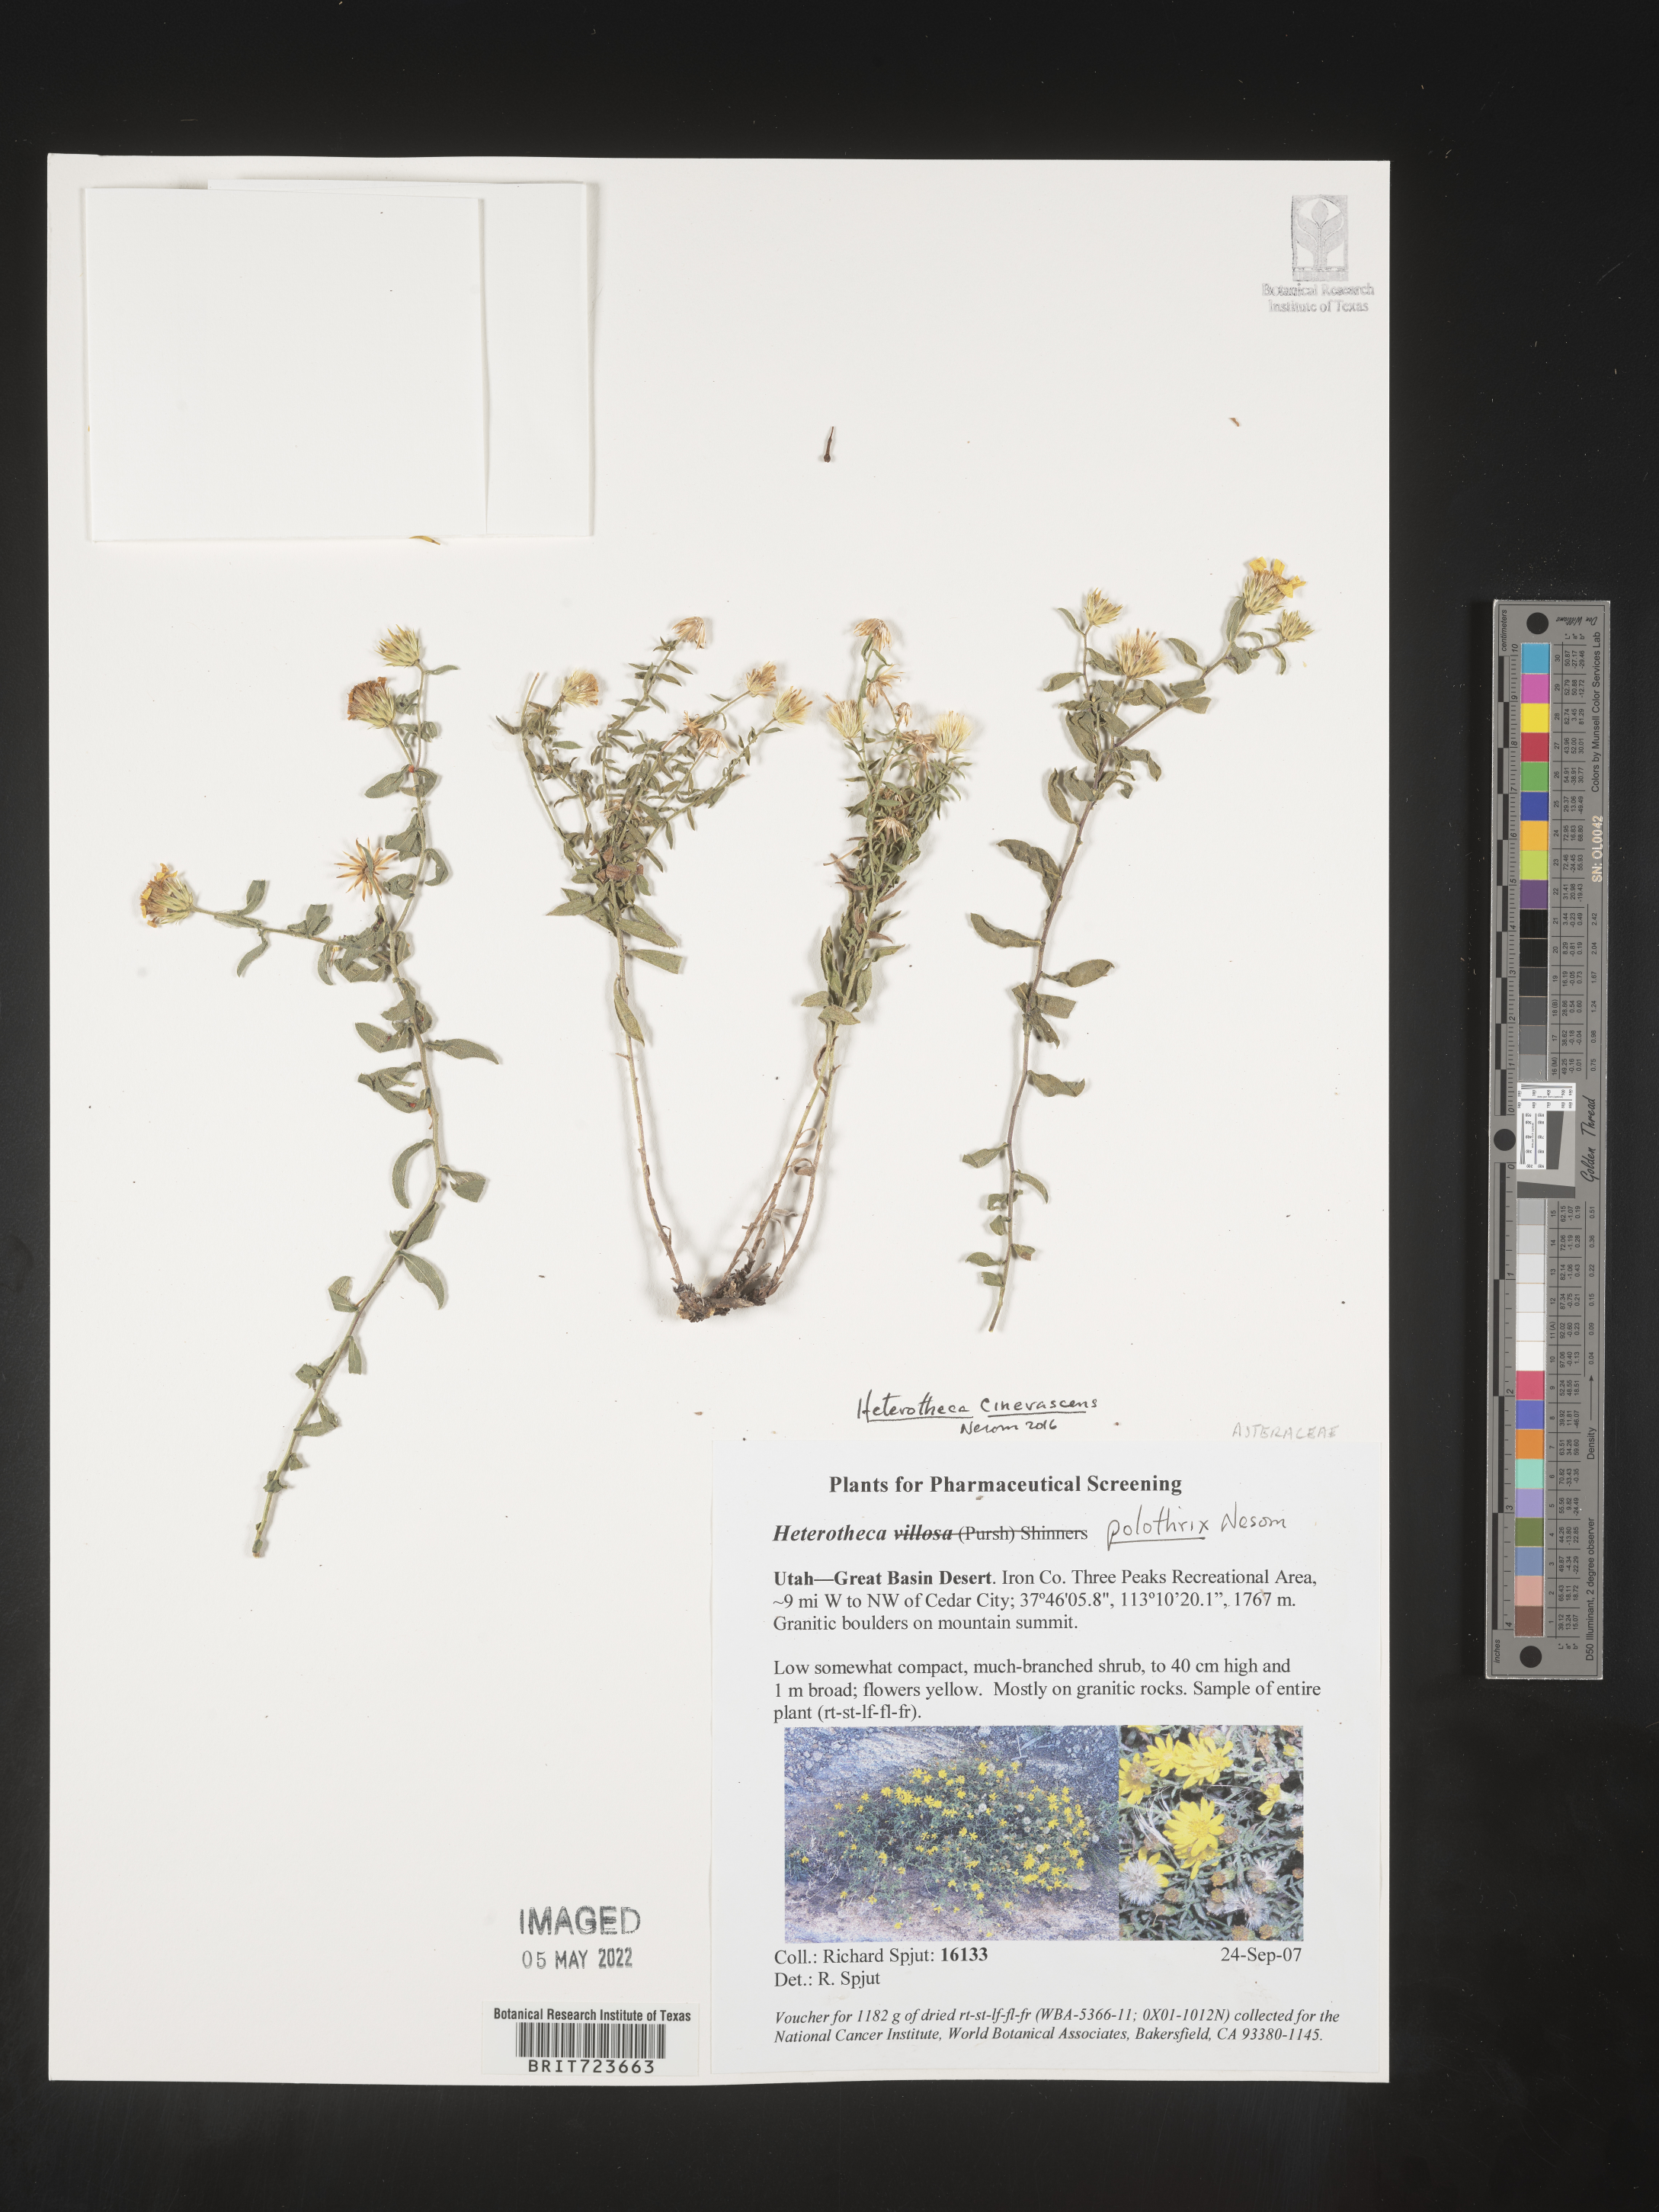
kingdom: Plantae
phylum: Tracheophyta
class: Magnoliopsida
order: Asterales
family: Asteraceae
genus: Heterotheca
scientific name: Heterotheca cinerascens
